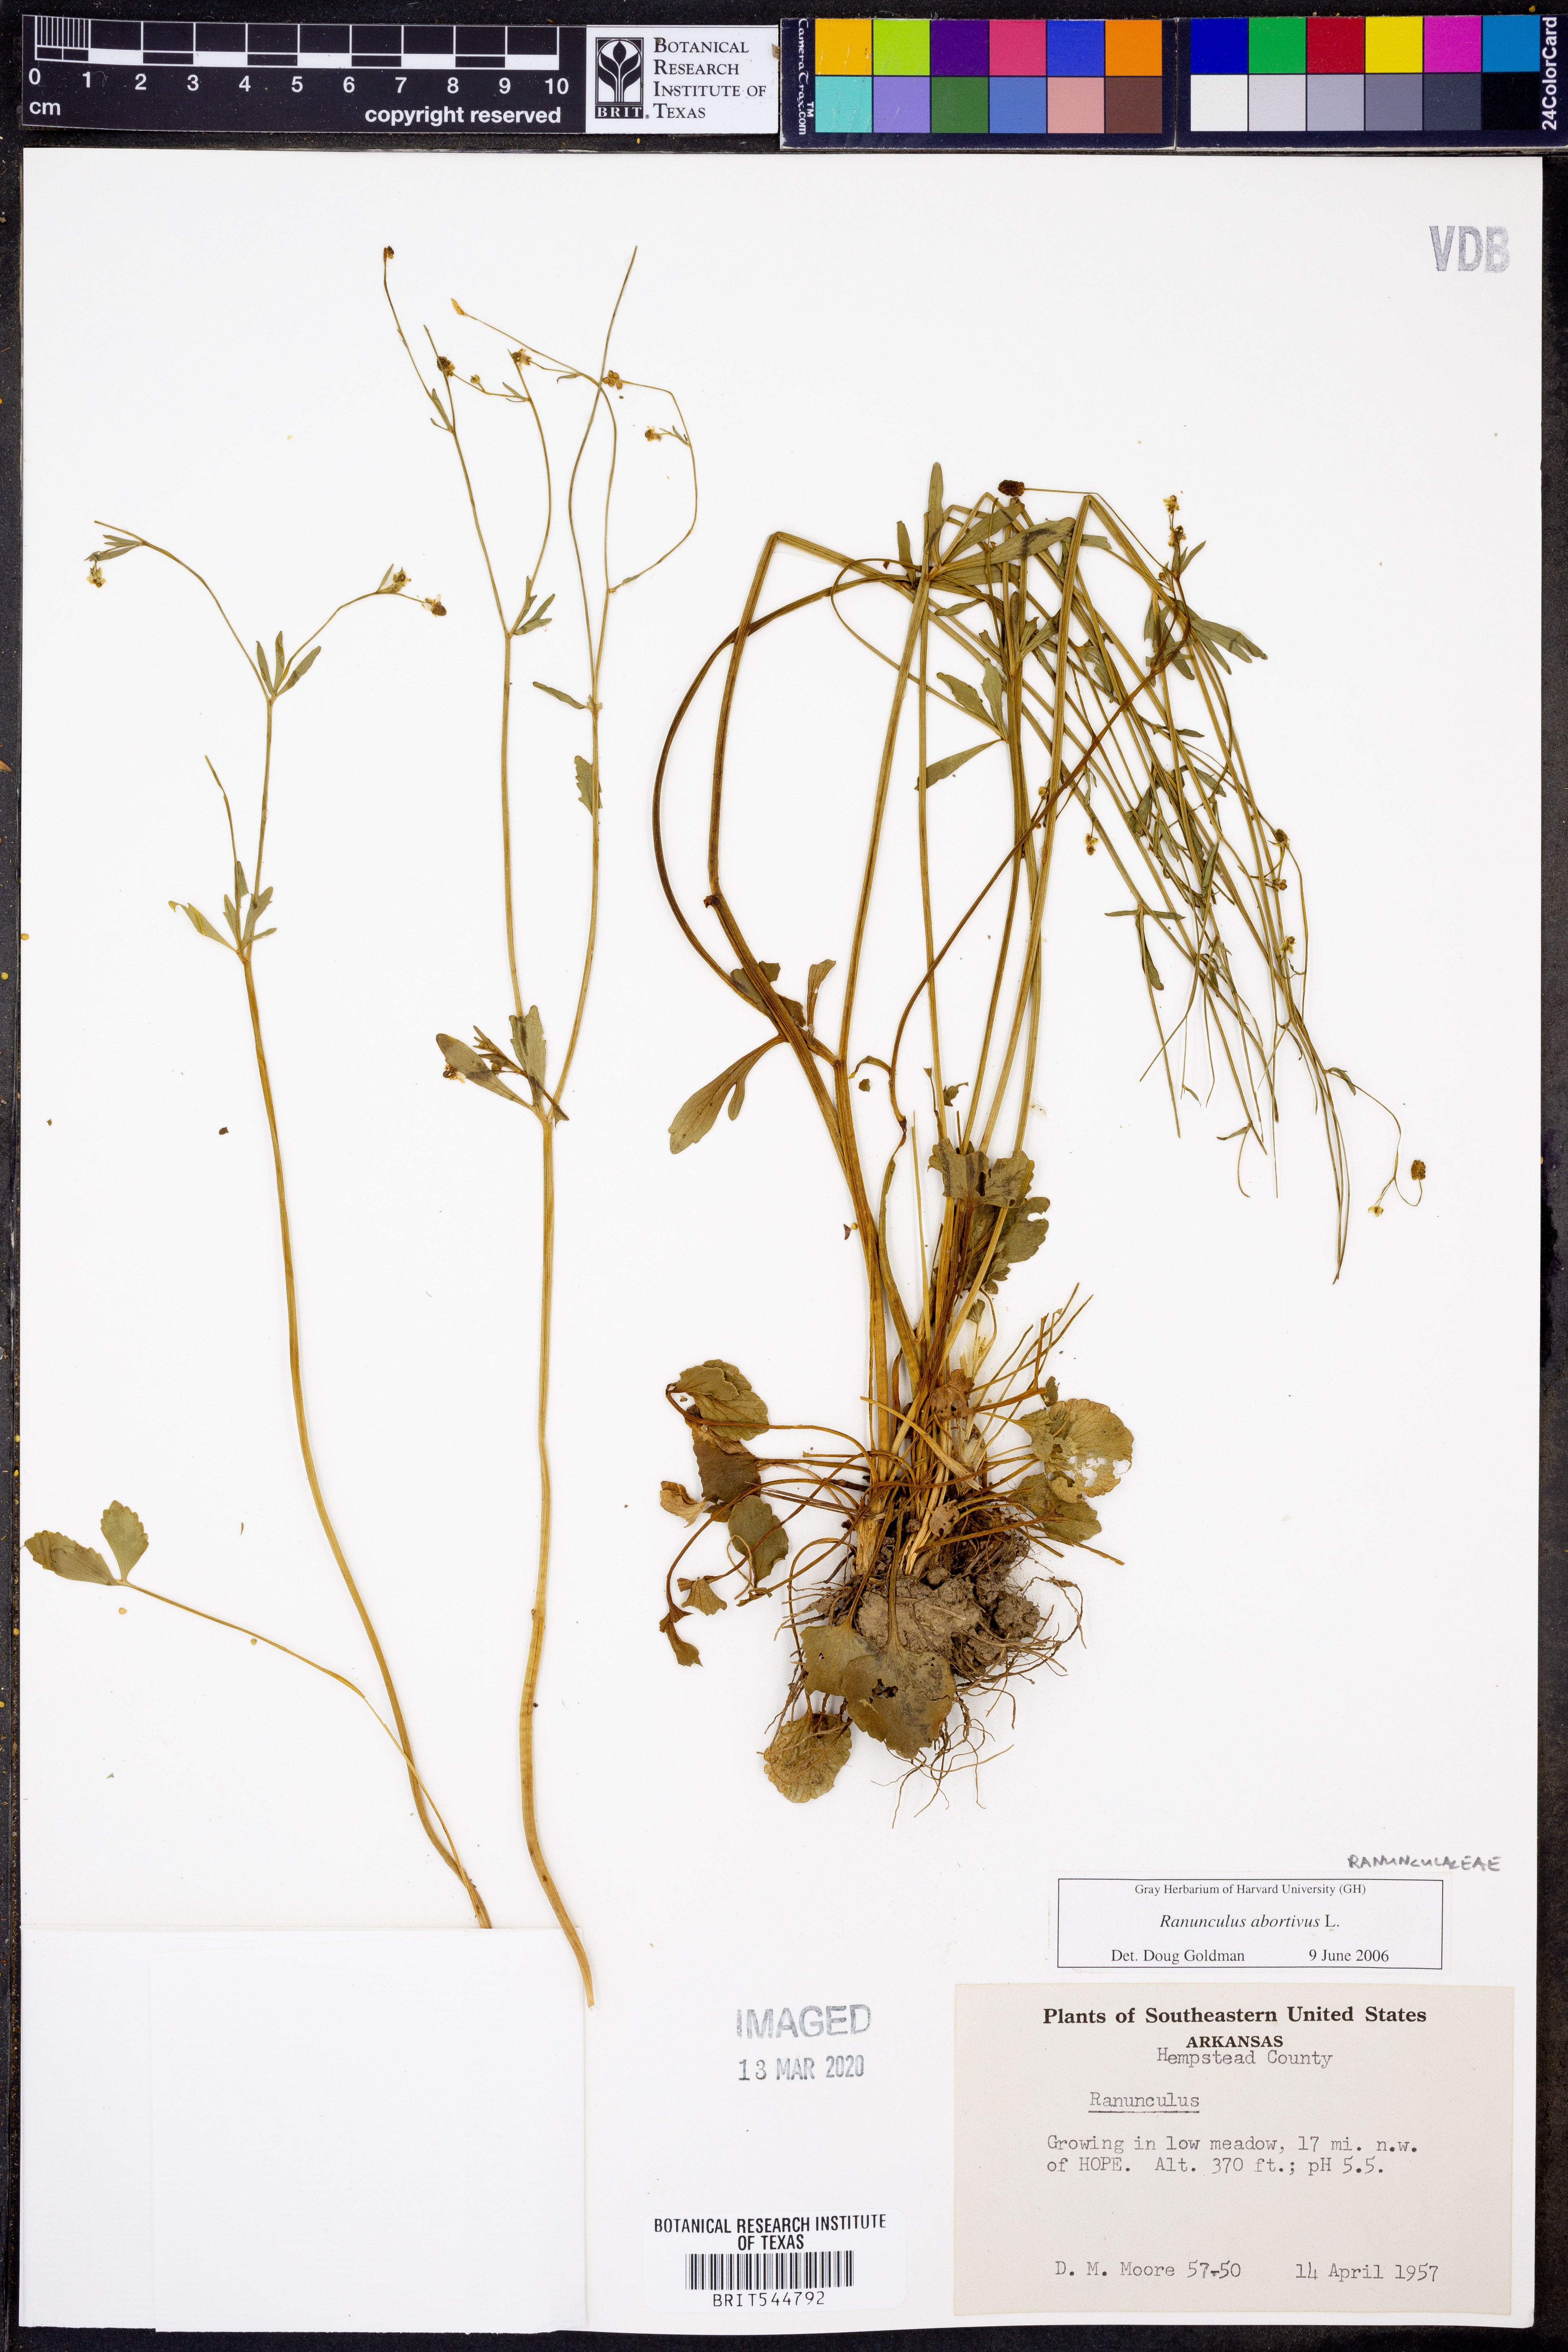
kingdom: Plantae
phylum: Tracheophyta
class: Magnoliopsida
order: Ranunculales
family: Ranunculaceae
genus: Ranunculus
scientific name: Ranunculus abortivus
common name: Early wood buttercup
